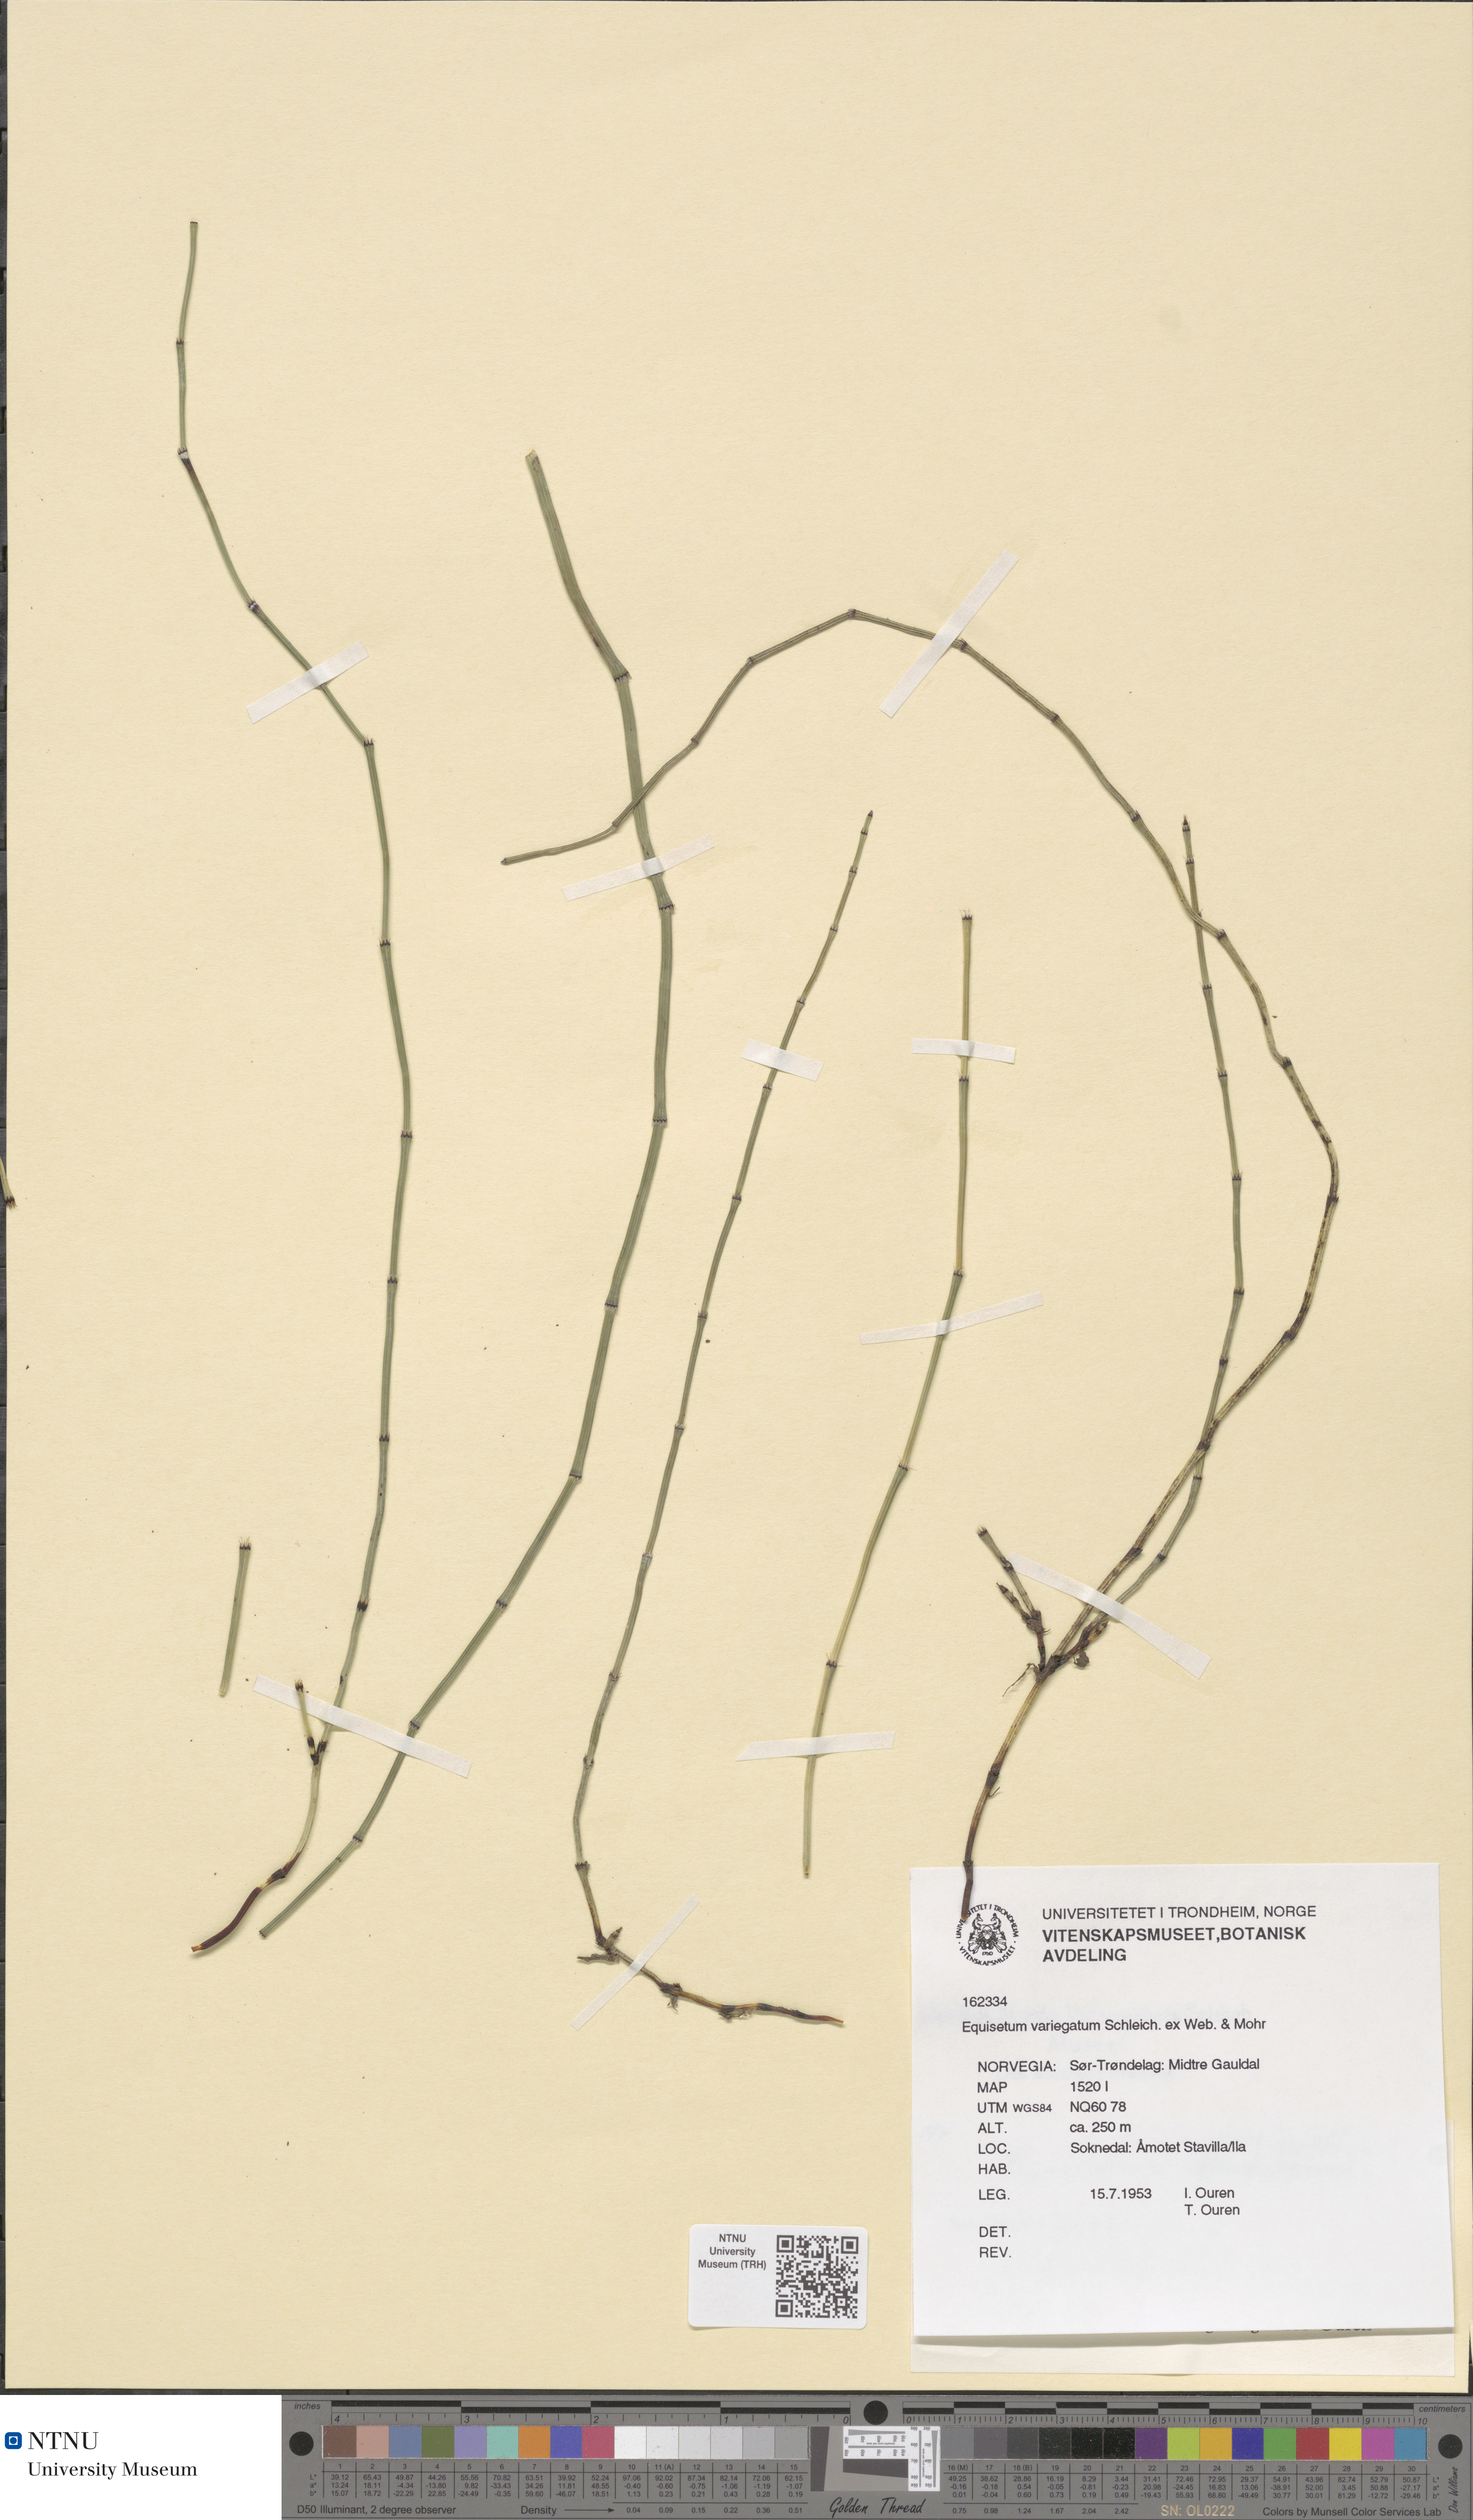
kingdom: Plantae
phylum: Tracheophyta
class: Polypodiopsida
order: Equisetales
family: Equisetaceae
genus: Equisetum
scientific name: Equisetum variegatum
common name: Variegated horsetail
